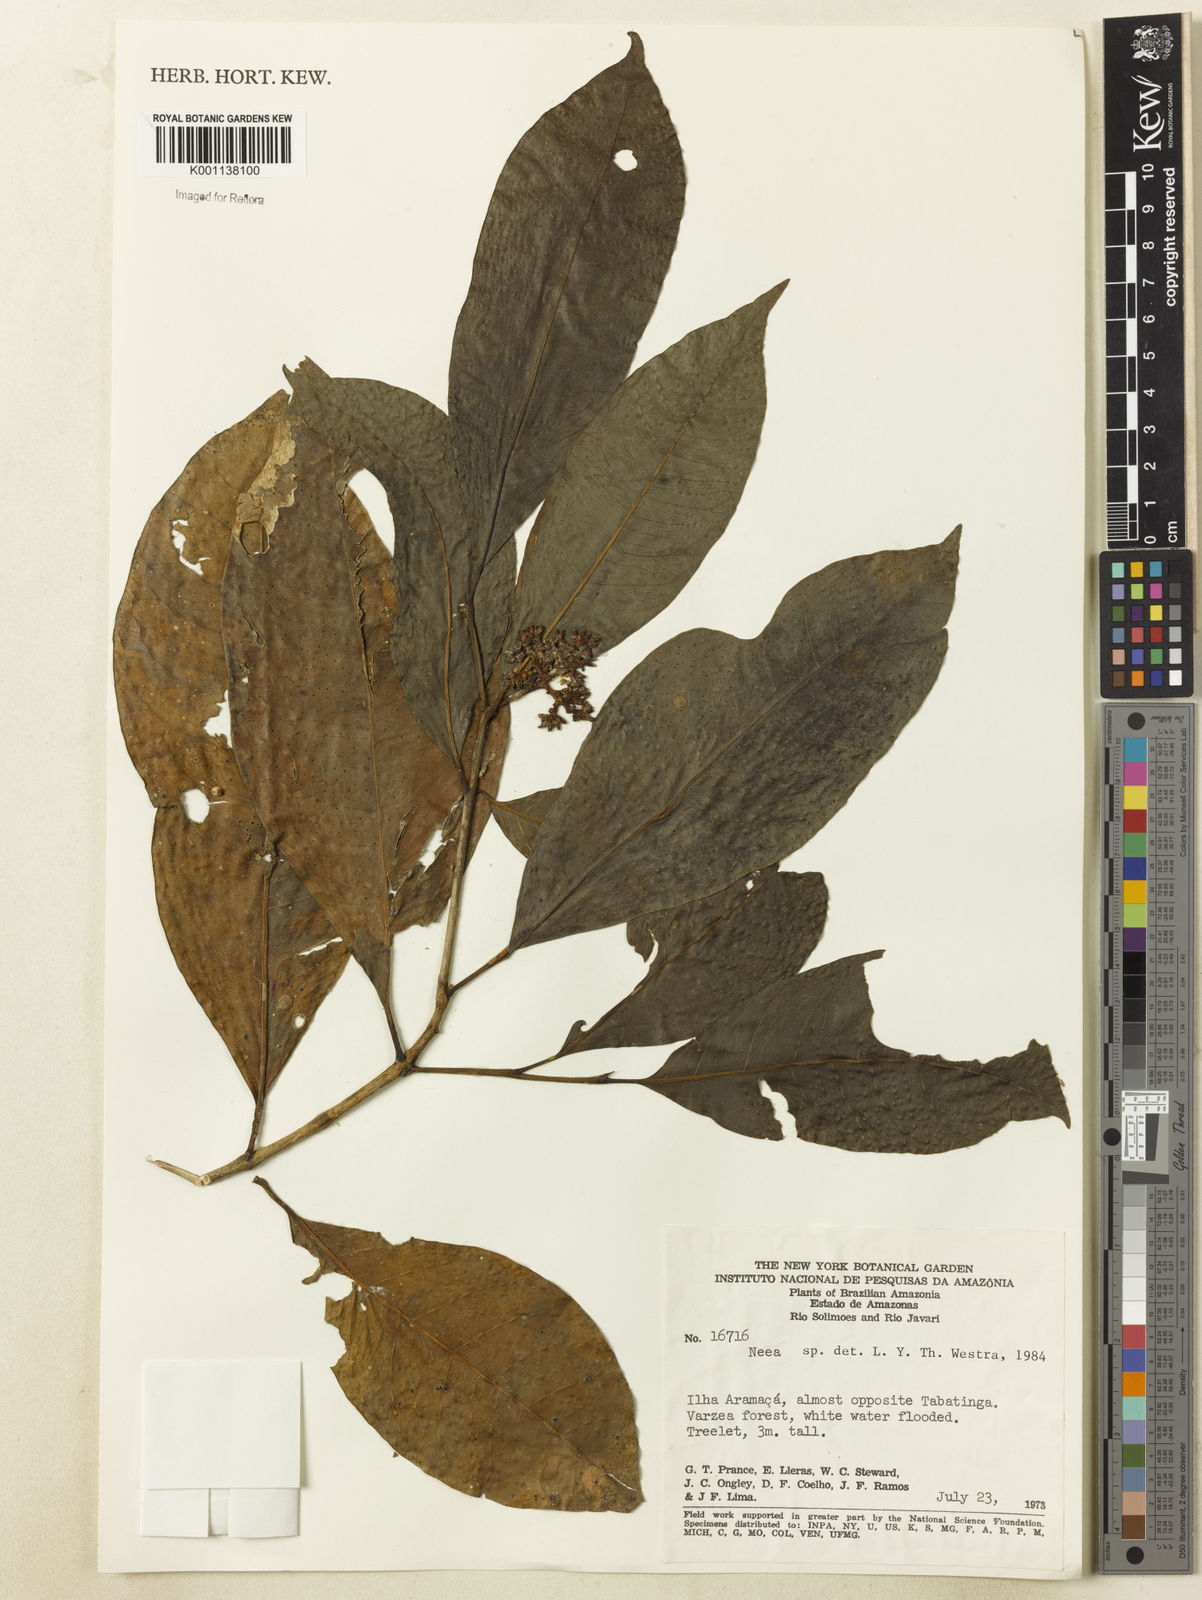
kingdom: Plantae
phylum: Tracheophyta
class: Magnoliopsida
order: Caryophyllales
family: Nyctaginaceae
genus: Neea
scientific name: Neea
